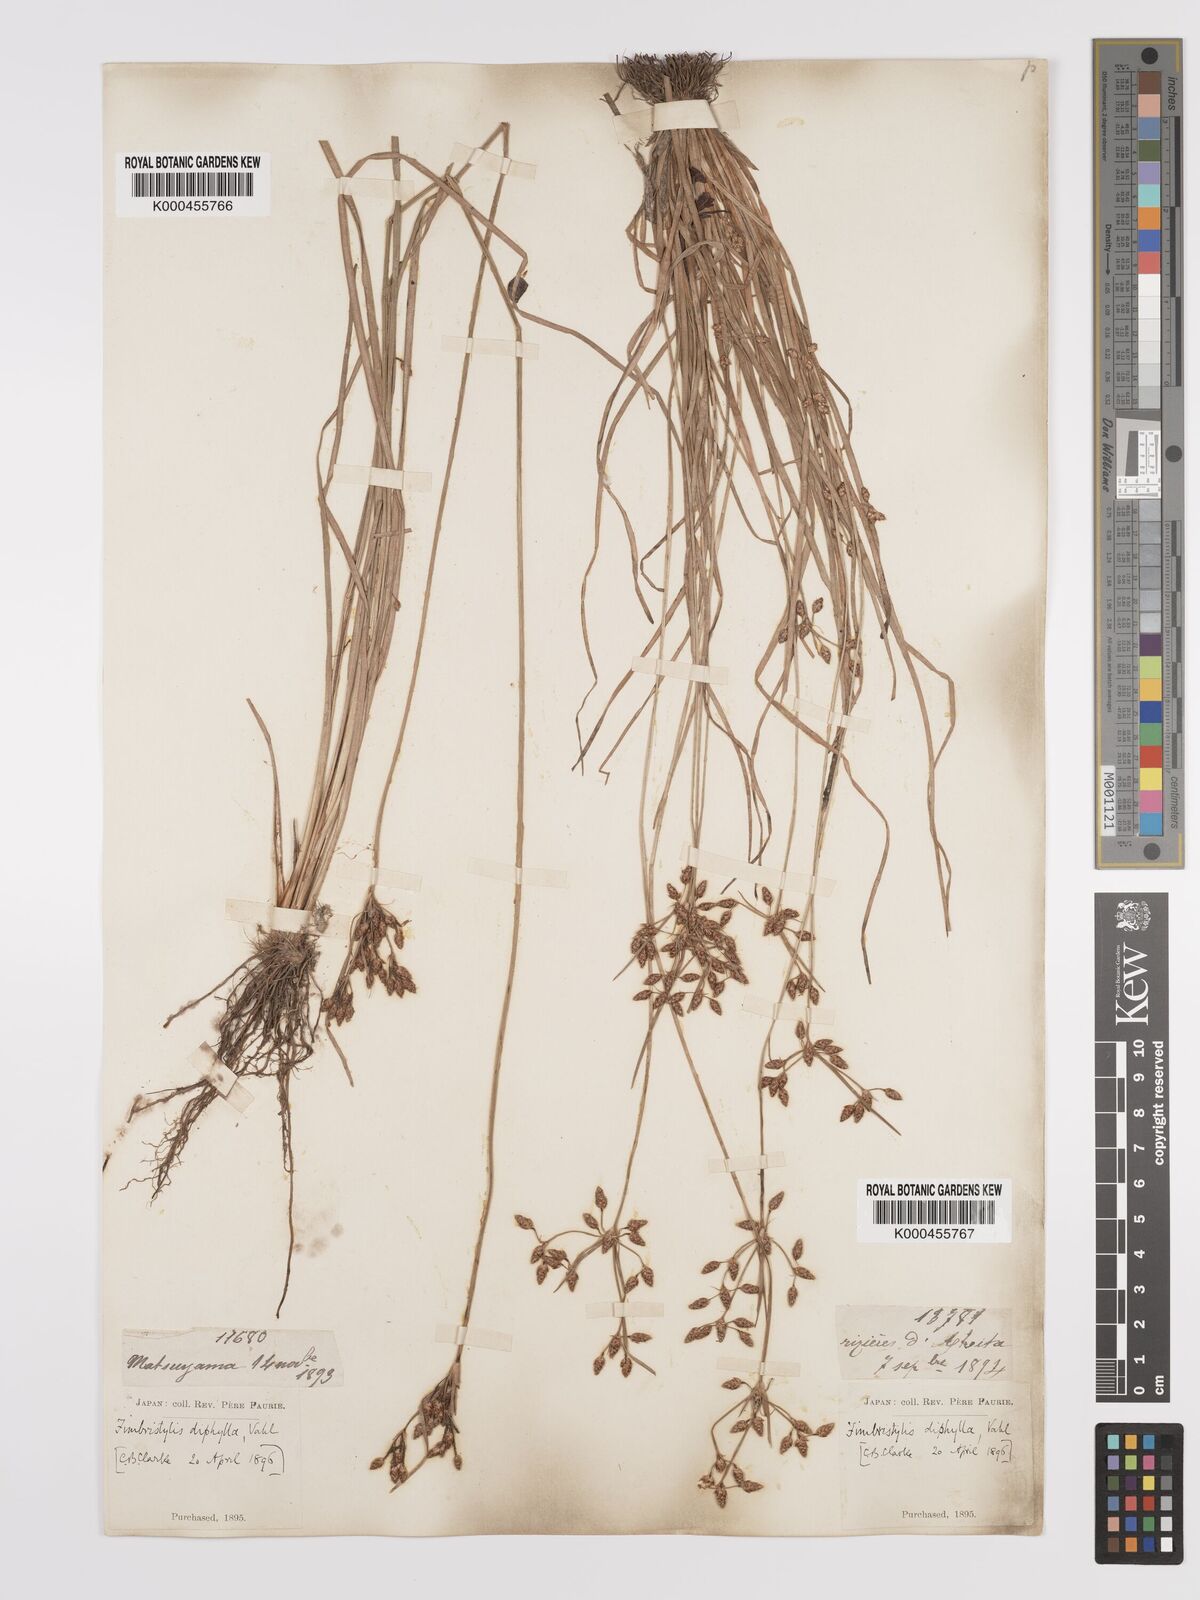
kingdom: Plantae
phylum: Tracheophyta
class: Liliopsida
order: Poales
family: Cyperaceae
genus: Fimbristylis
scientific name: Fimbristylis dichotoma
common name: Forked fimbry
